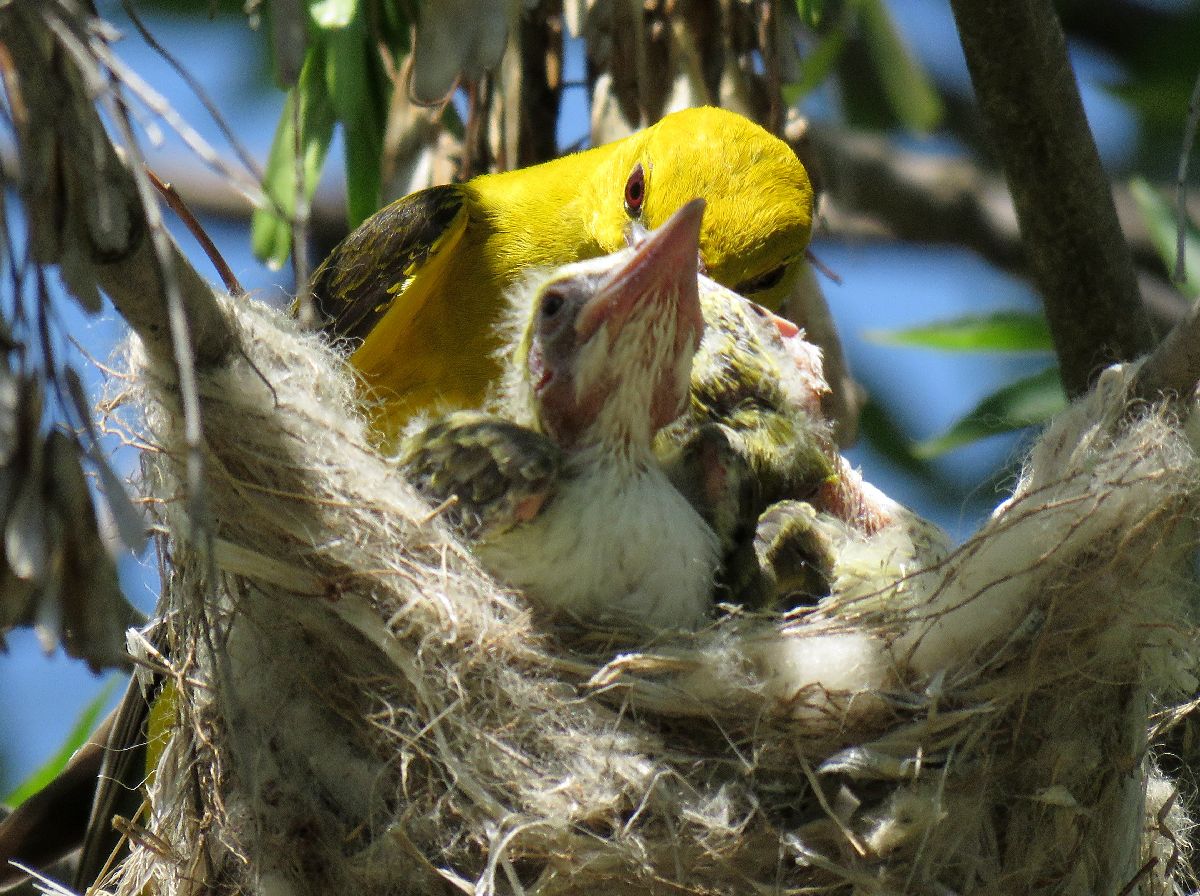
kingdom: Animalia
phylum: Chordata
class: Aves
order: Passeriformes
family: Oriolidae
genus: Oriolus
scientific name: Oriolus oriolus
